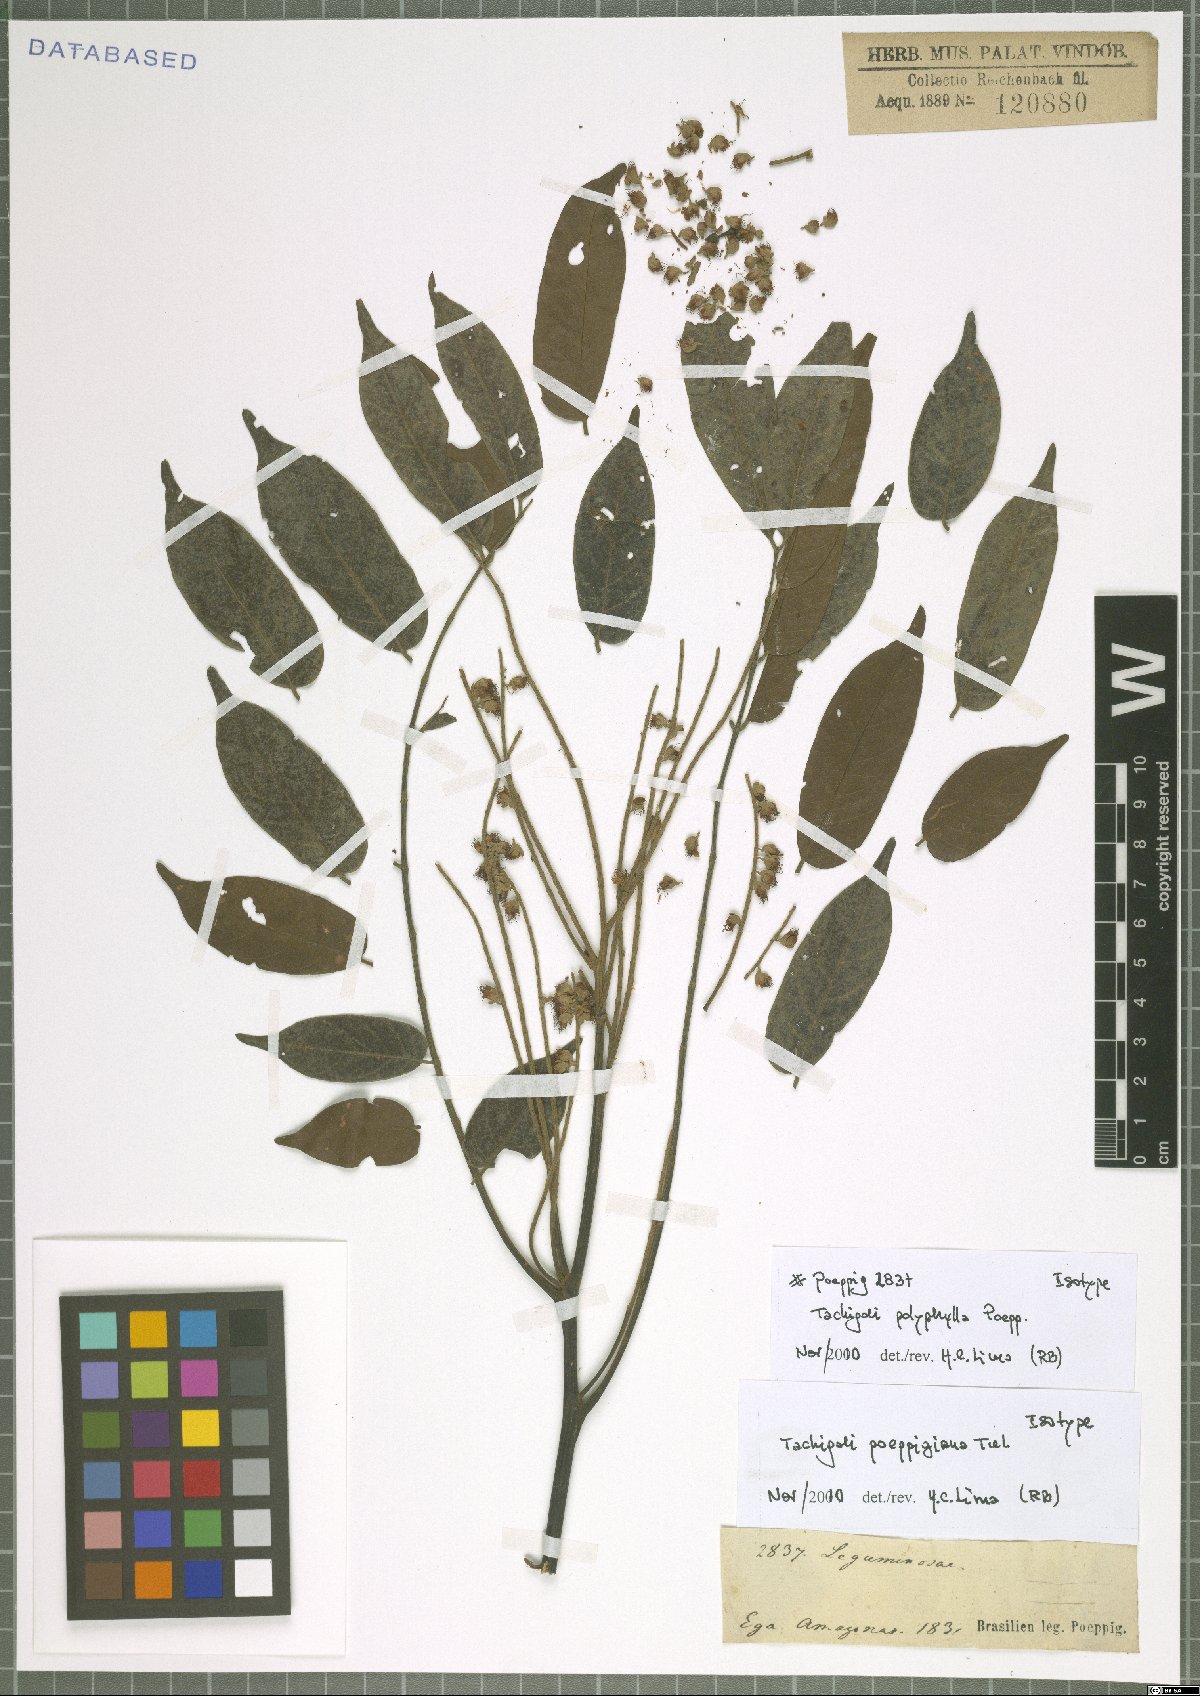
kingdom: Plantae
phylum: Tracheophyta
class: Magnoliopsida
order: Fabales
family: Fabaceae
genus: Tachigali
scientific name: Tachigali poeppigiana
